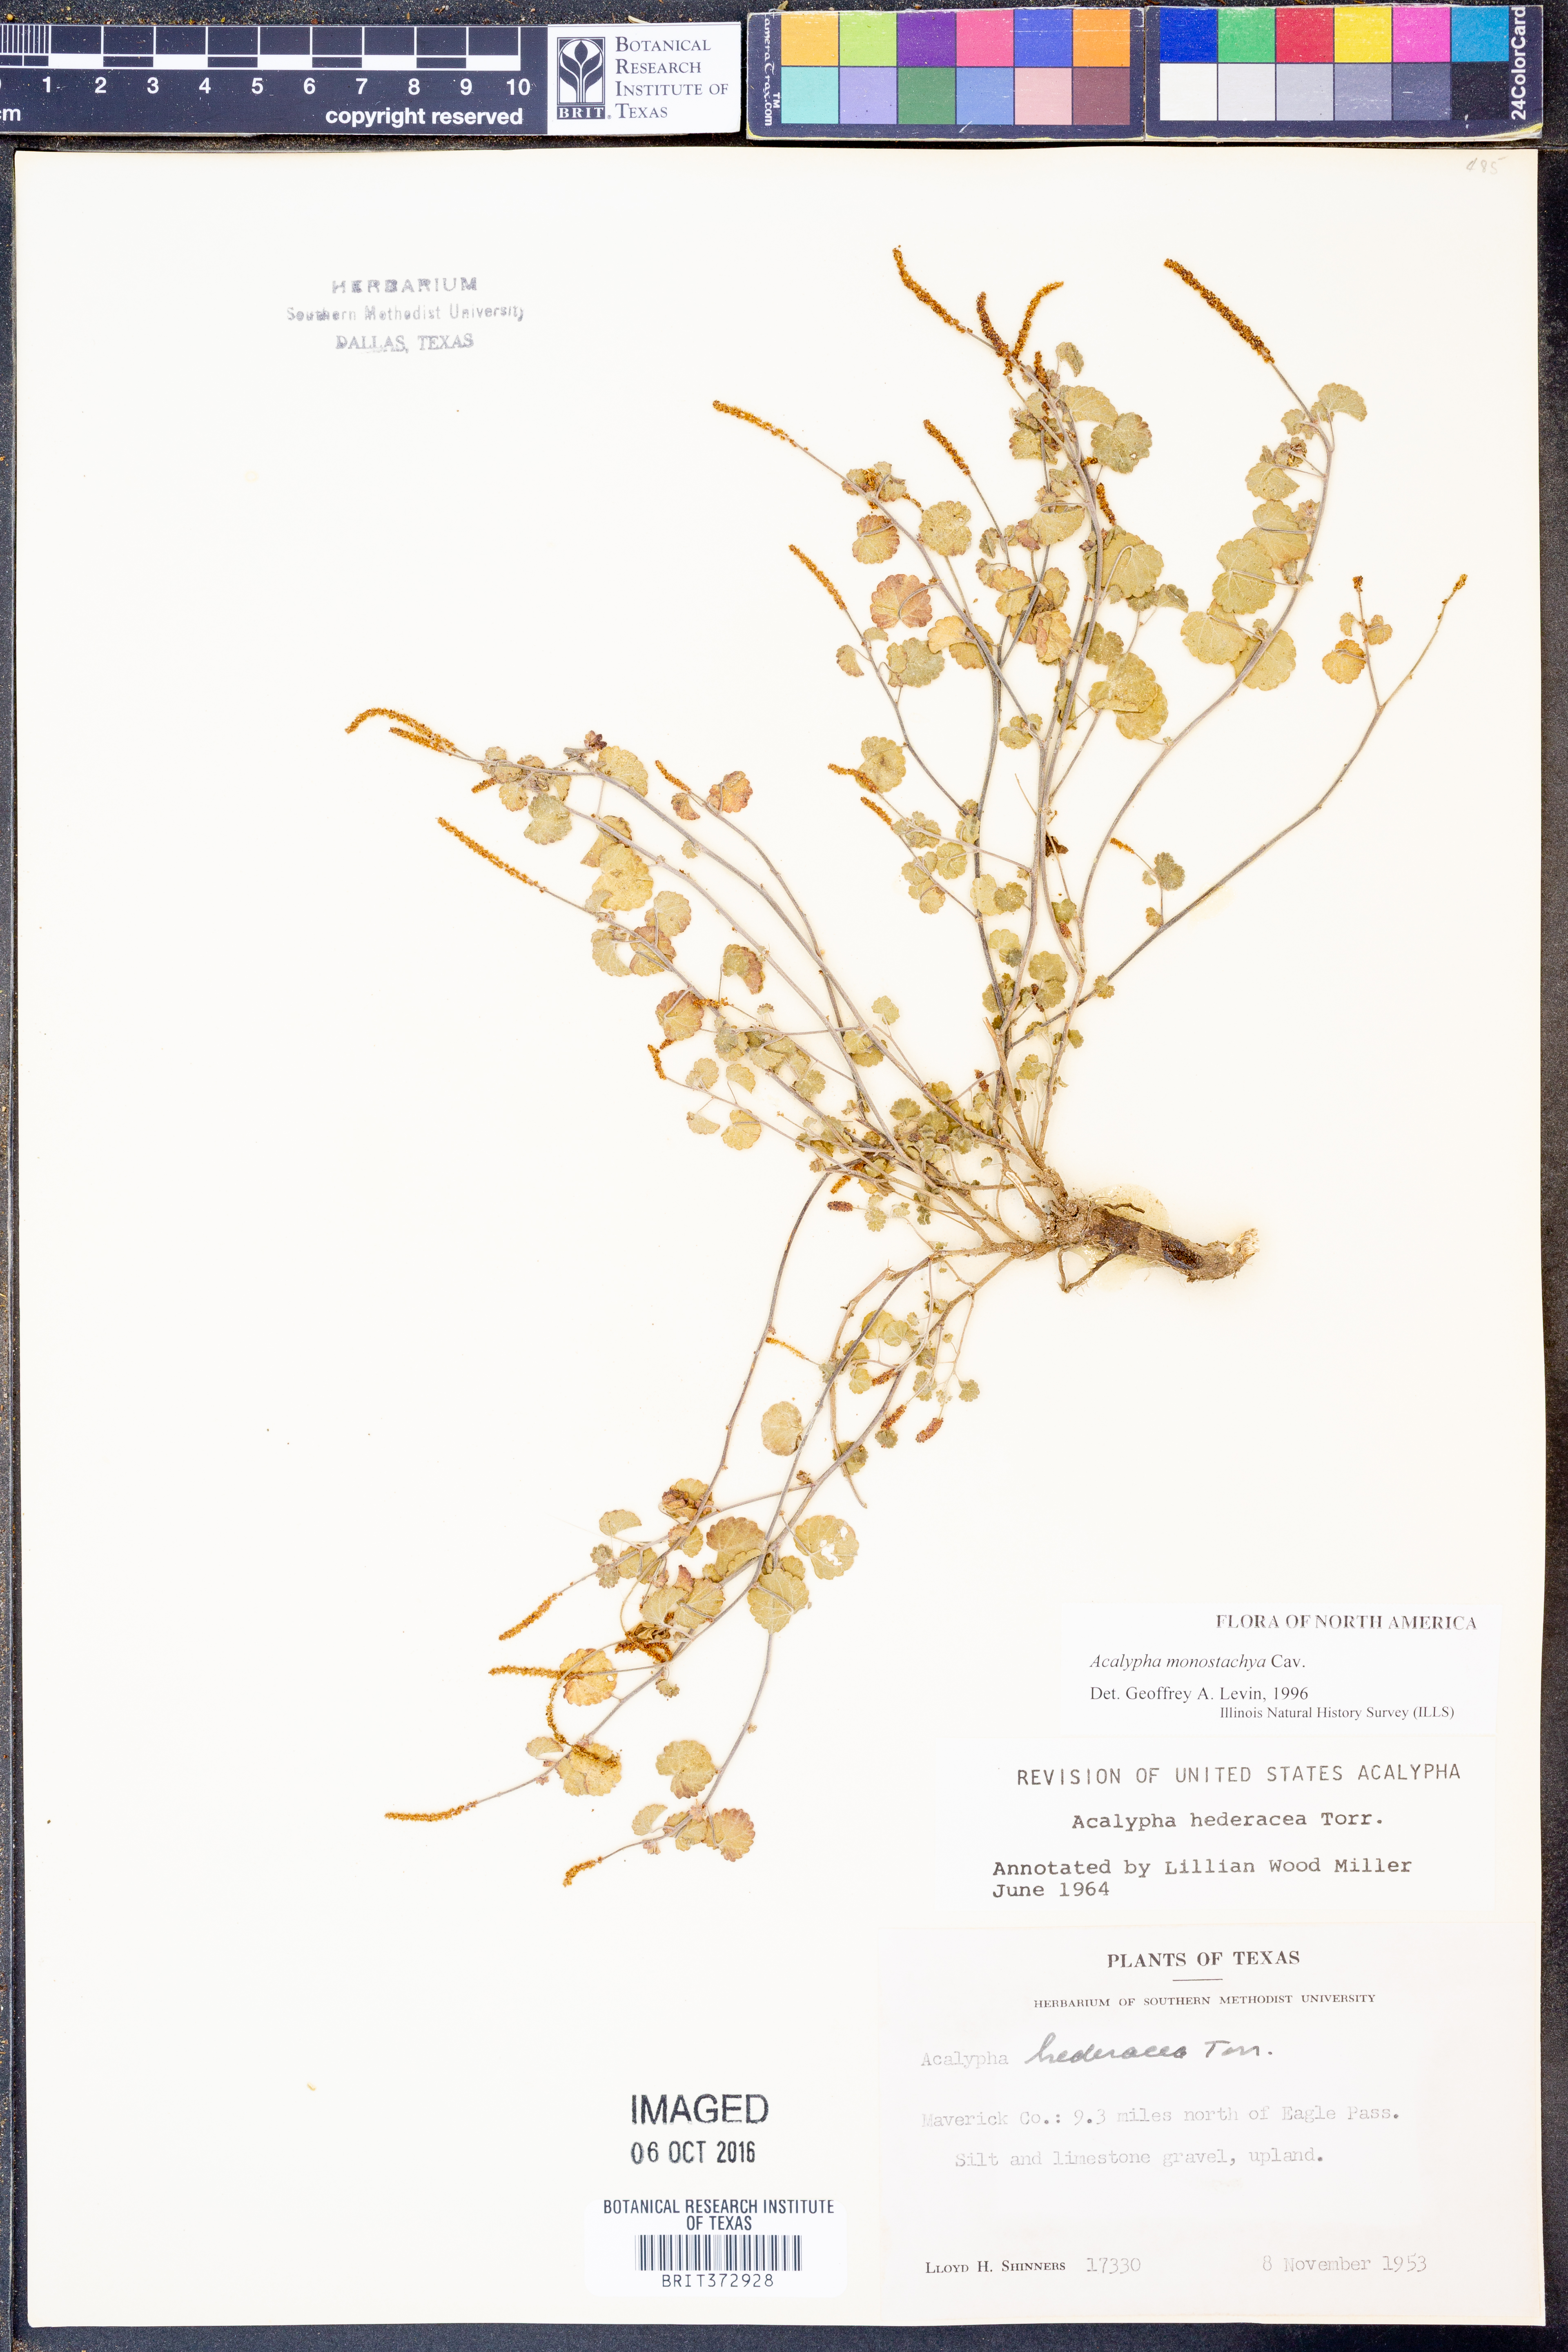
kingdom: Plantae
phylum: Tracheophyta
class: Magnoliopsida
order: Malpighiales
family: Euphorbiaceae
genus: Acalypha
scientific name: Acalypha monostachya
